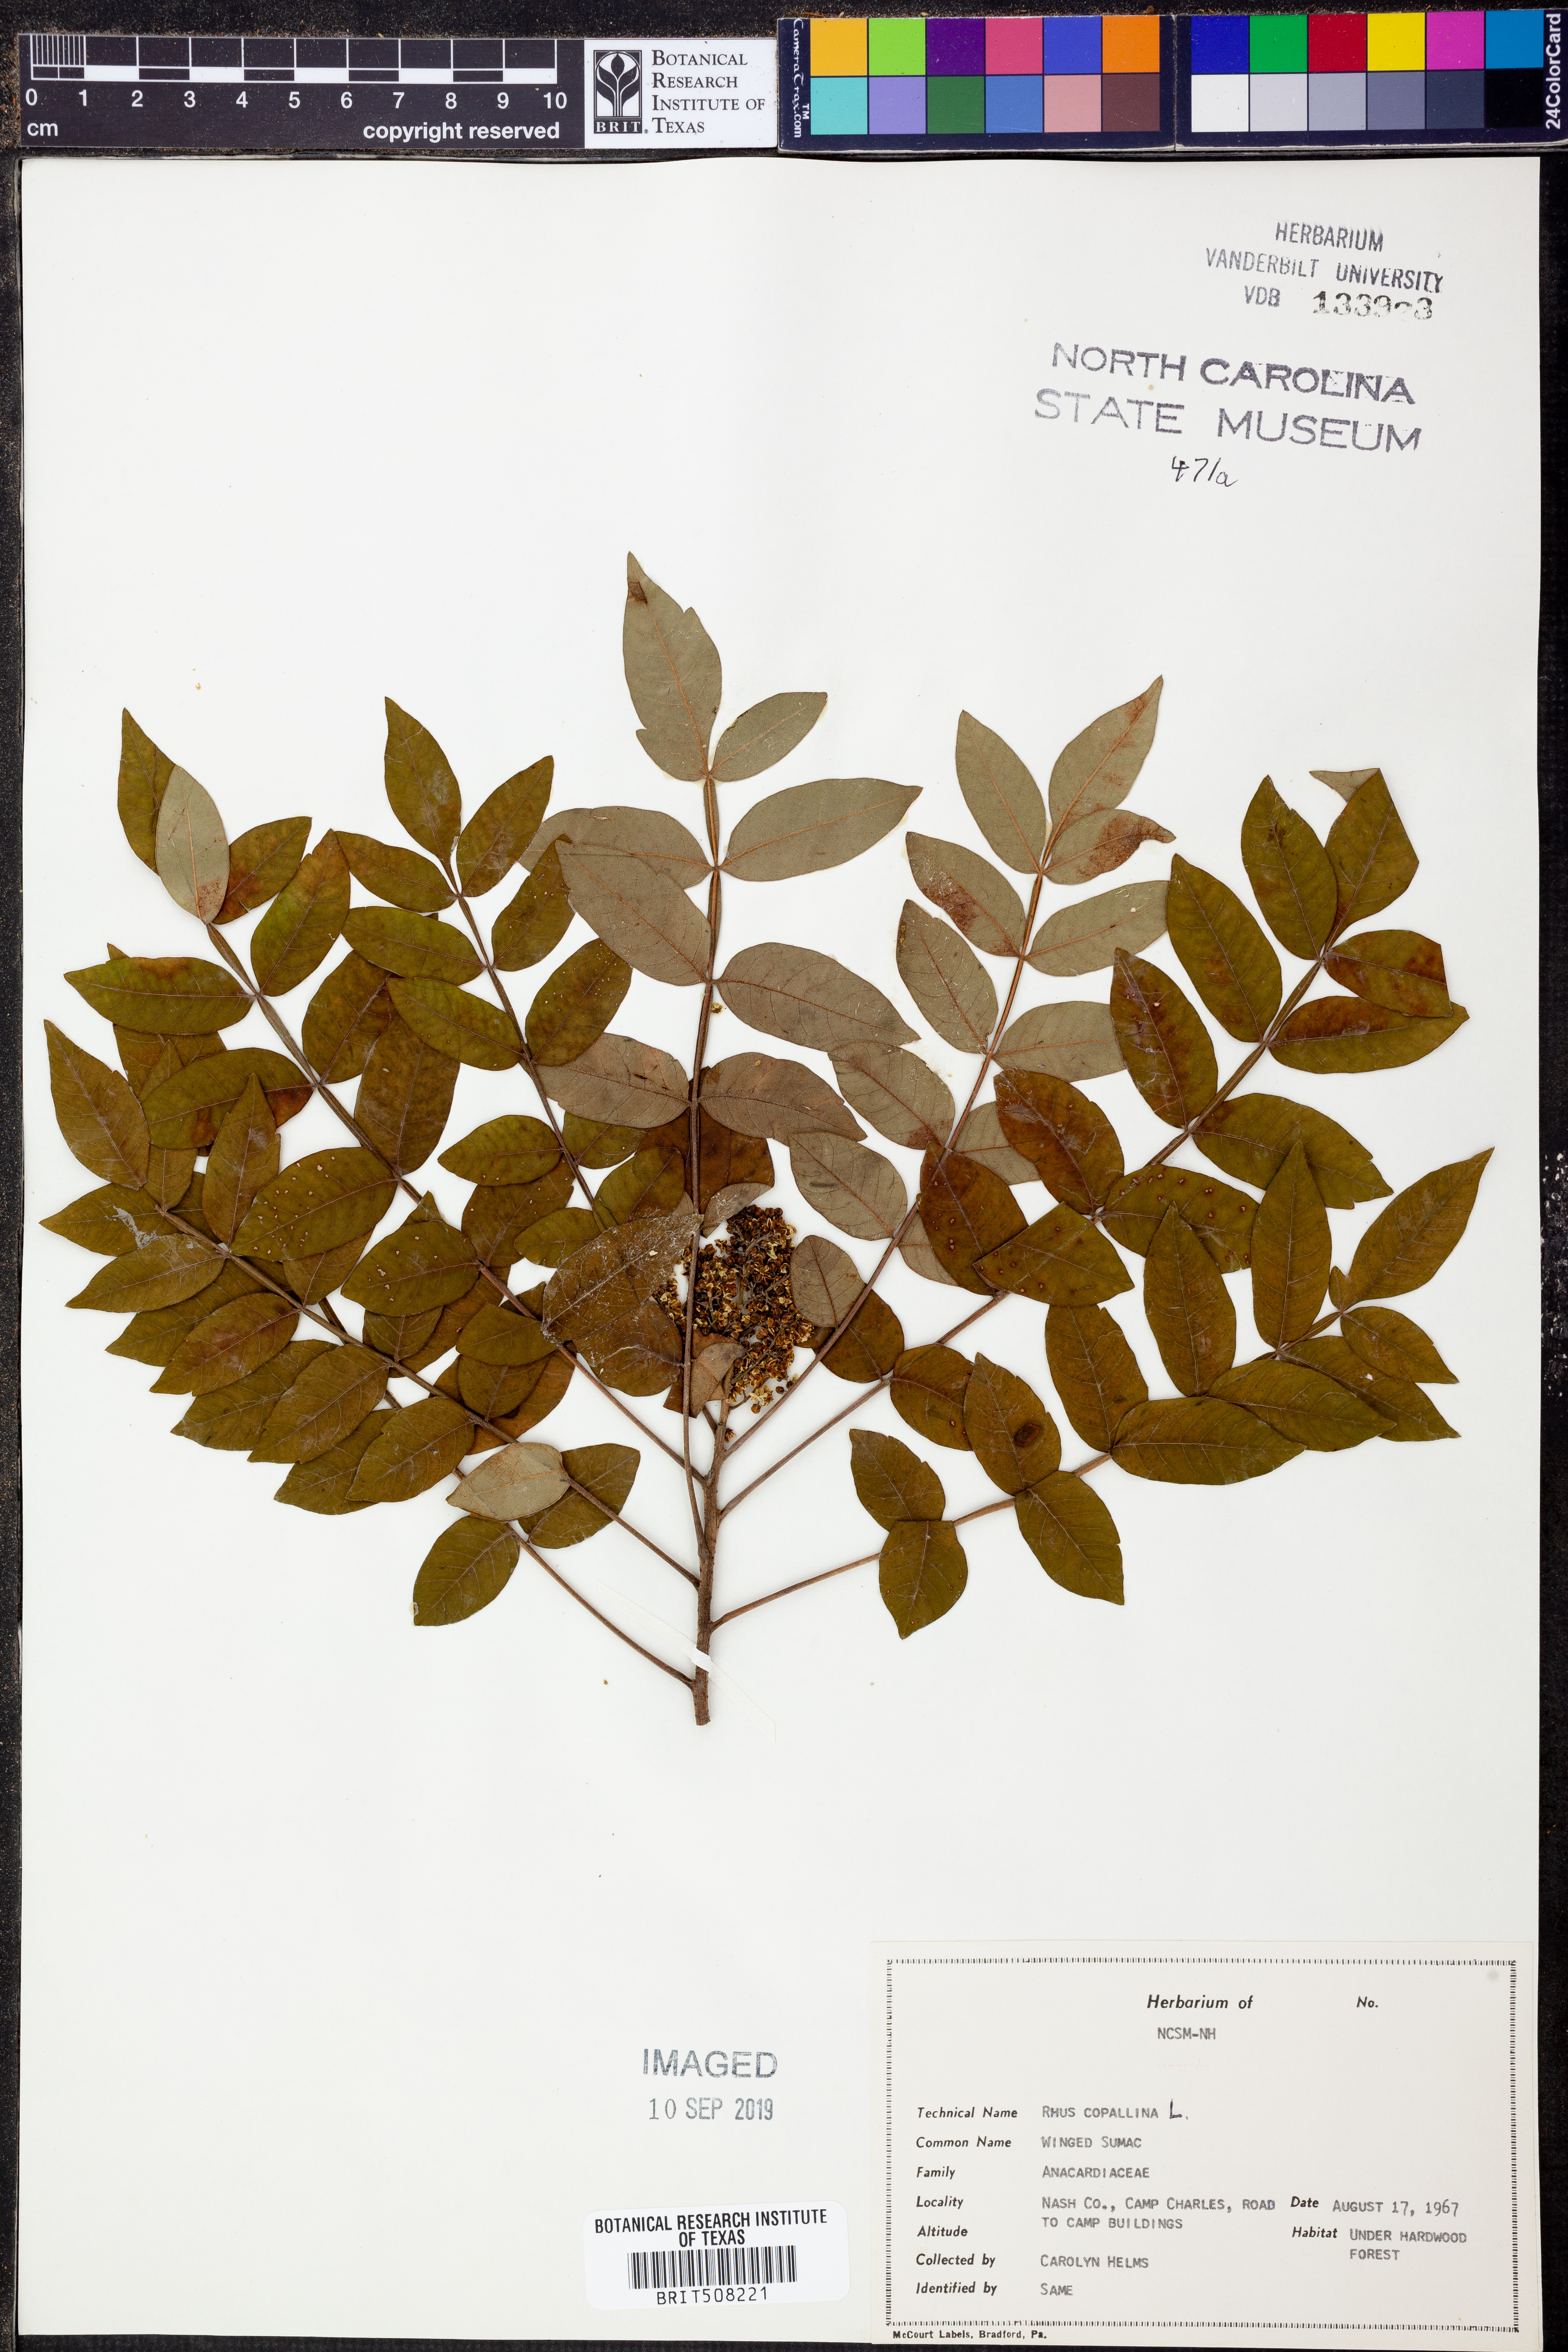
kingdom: Plantae
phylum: Tracheophyta
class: Magnoliopsida
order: Sapindales
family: Anacardiaceae
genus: Rhus
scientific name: Rhus copallina
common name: Shining sumac
